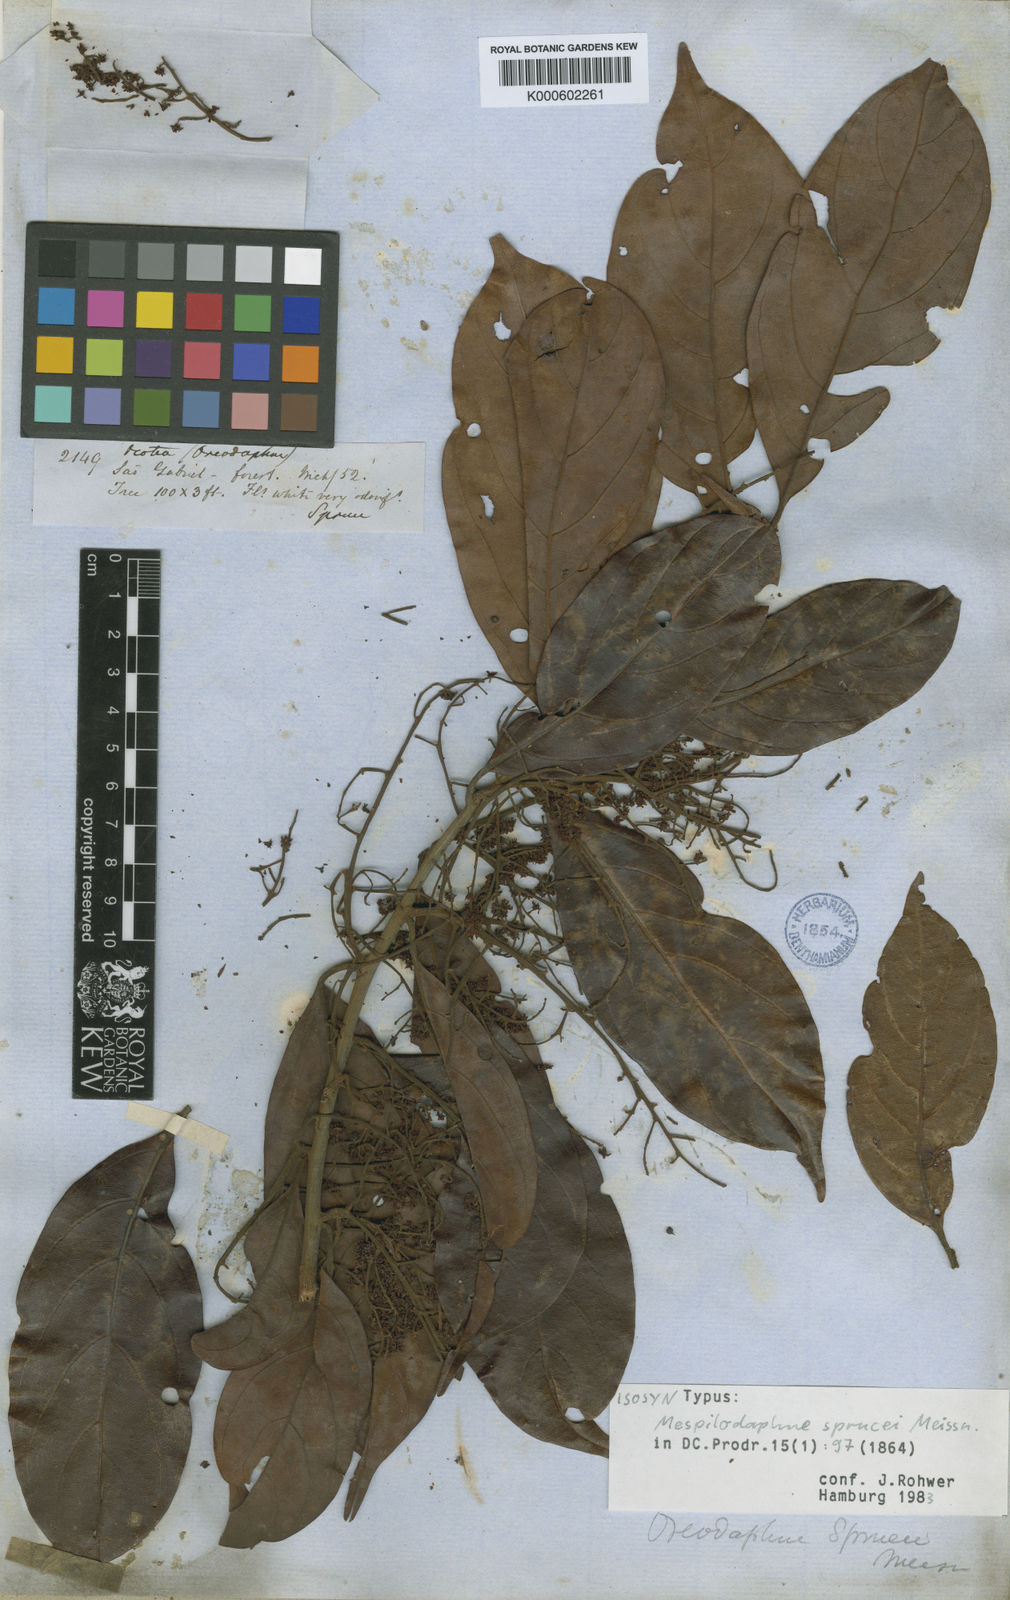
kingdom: Plantae
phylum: Tracheophyta
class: Magnoliopsida
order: Laurales
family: Lauraceae
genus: Mespilodaphne
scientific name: Mespilodaphne sprucei
